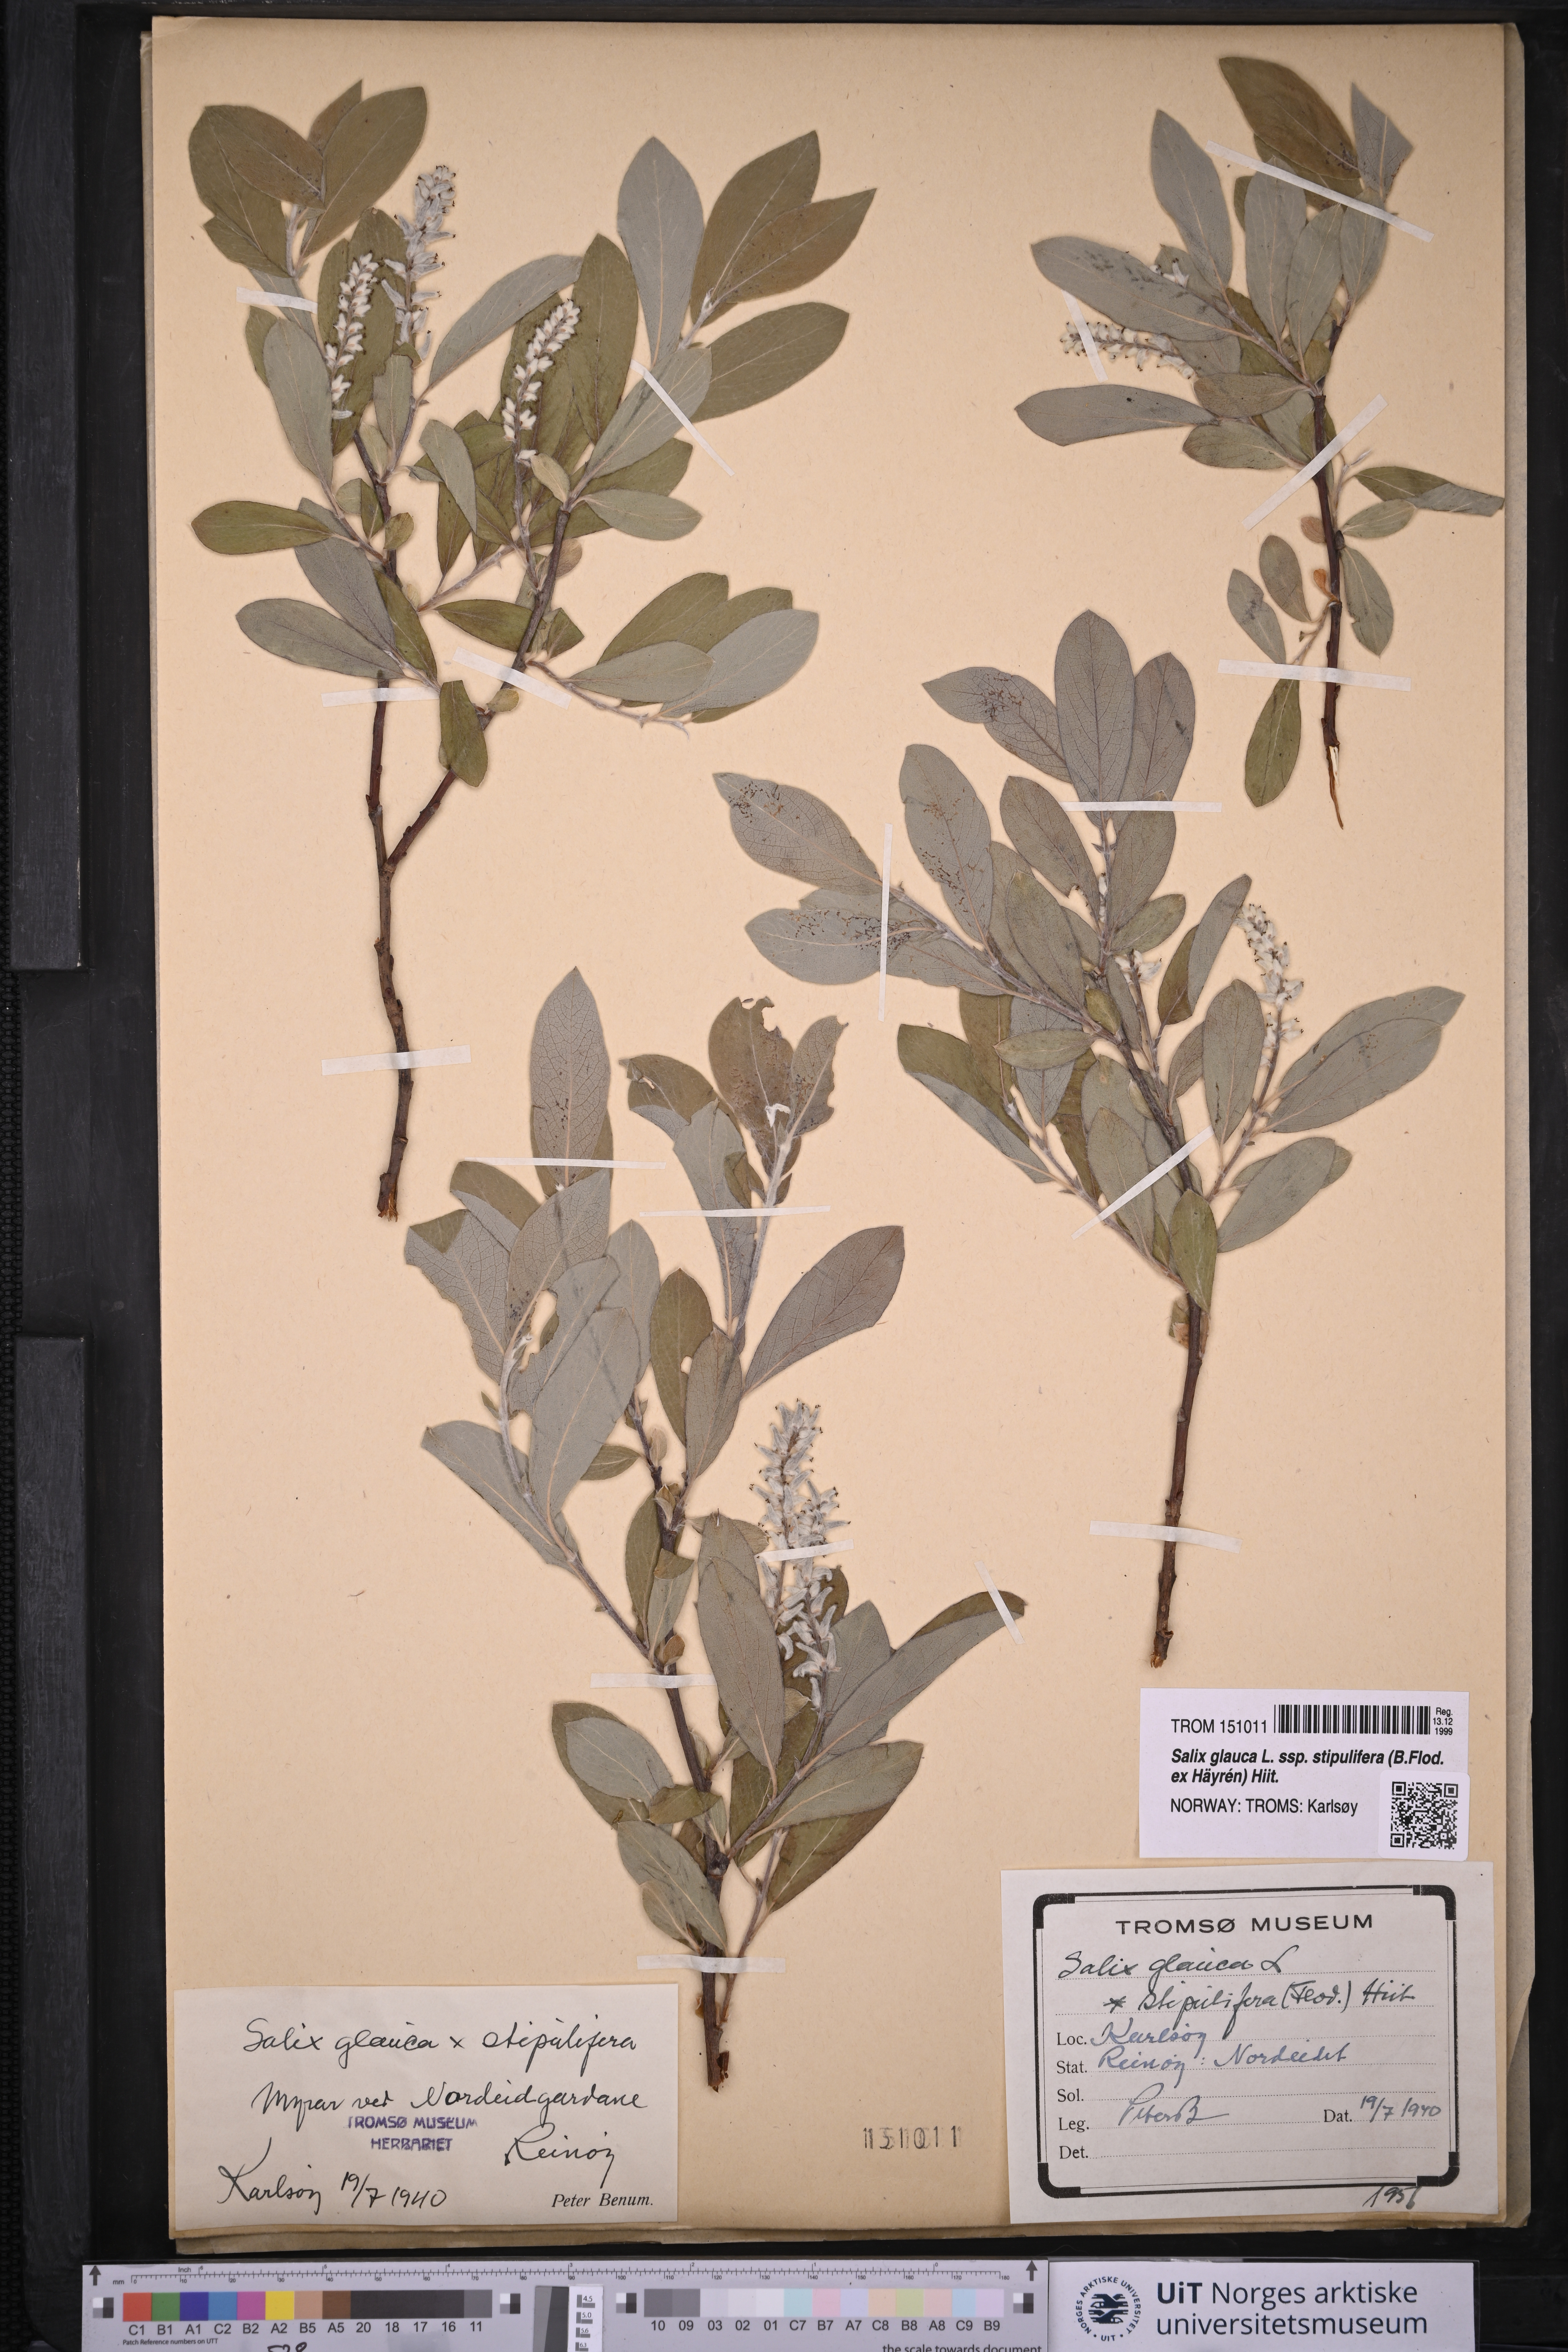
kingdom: Plantae
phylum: Tracheophyta
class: Magnoliopsida
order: Malpighiales
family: Salicaceae
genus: Salix
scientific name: Salix glauca
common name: Glaucous willow
